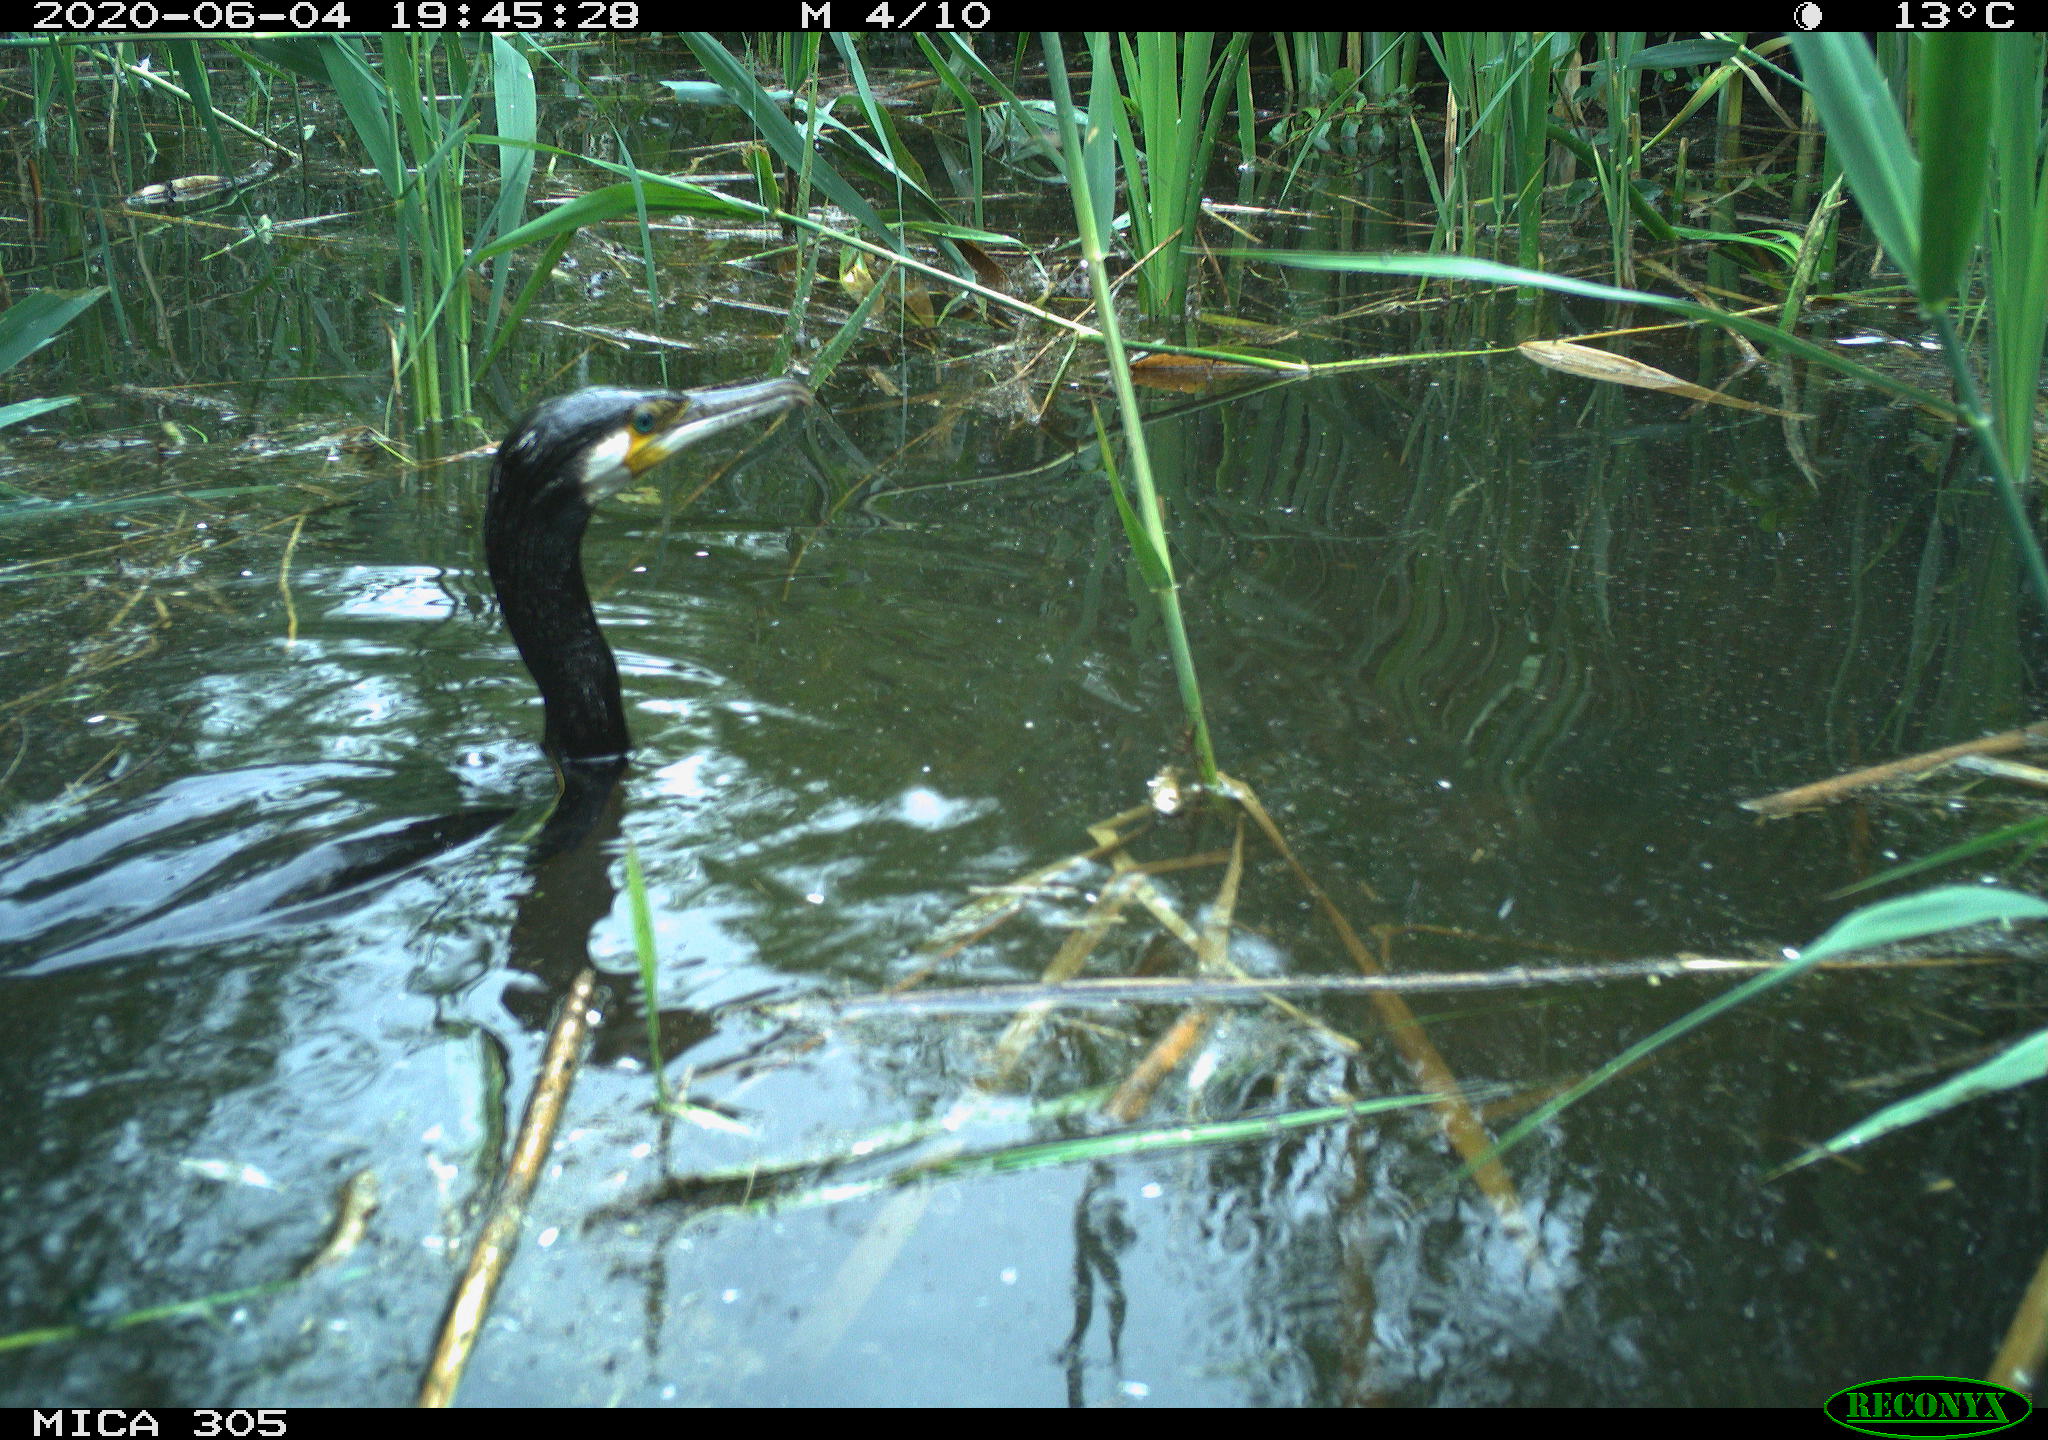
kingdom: Animalia
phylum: Chordata
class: Aves
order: Suliformes
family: Phalacrocoracidae
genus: Phalacrocorax
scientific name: Phalacrocorax carbo
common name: Great cormorant
